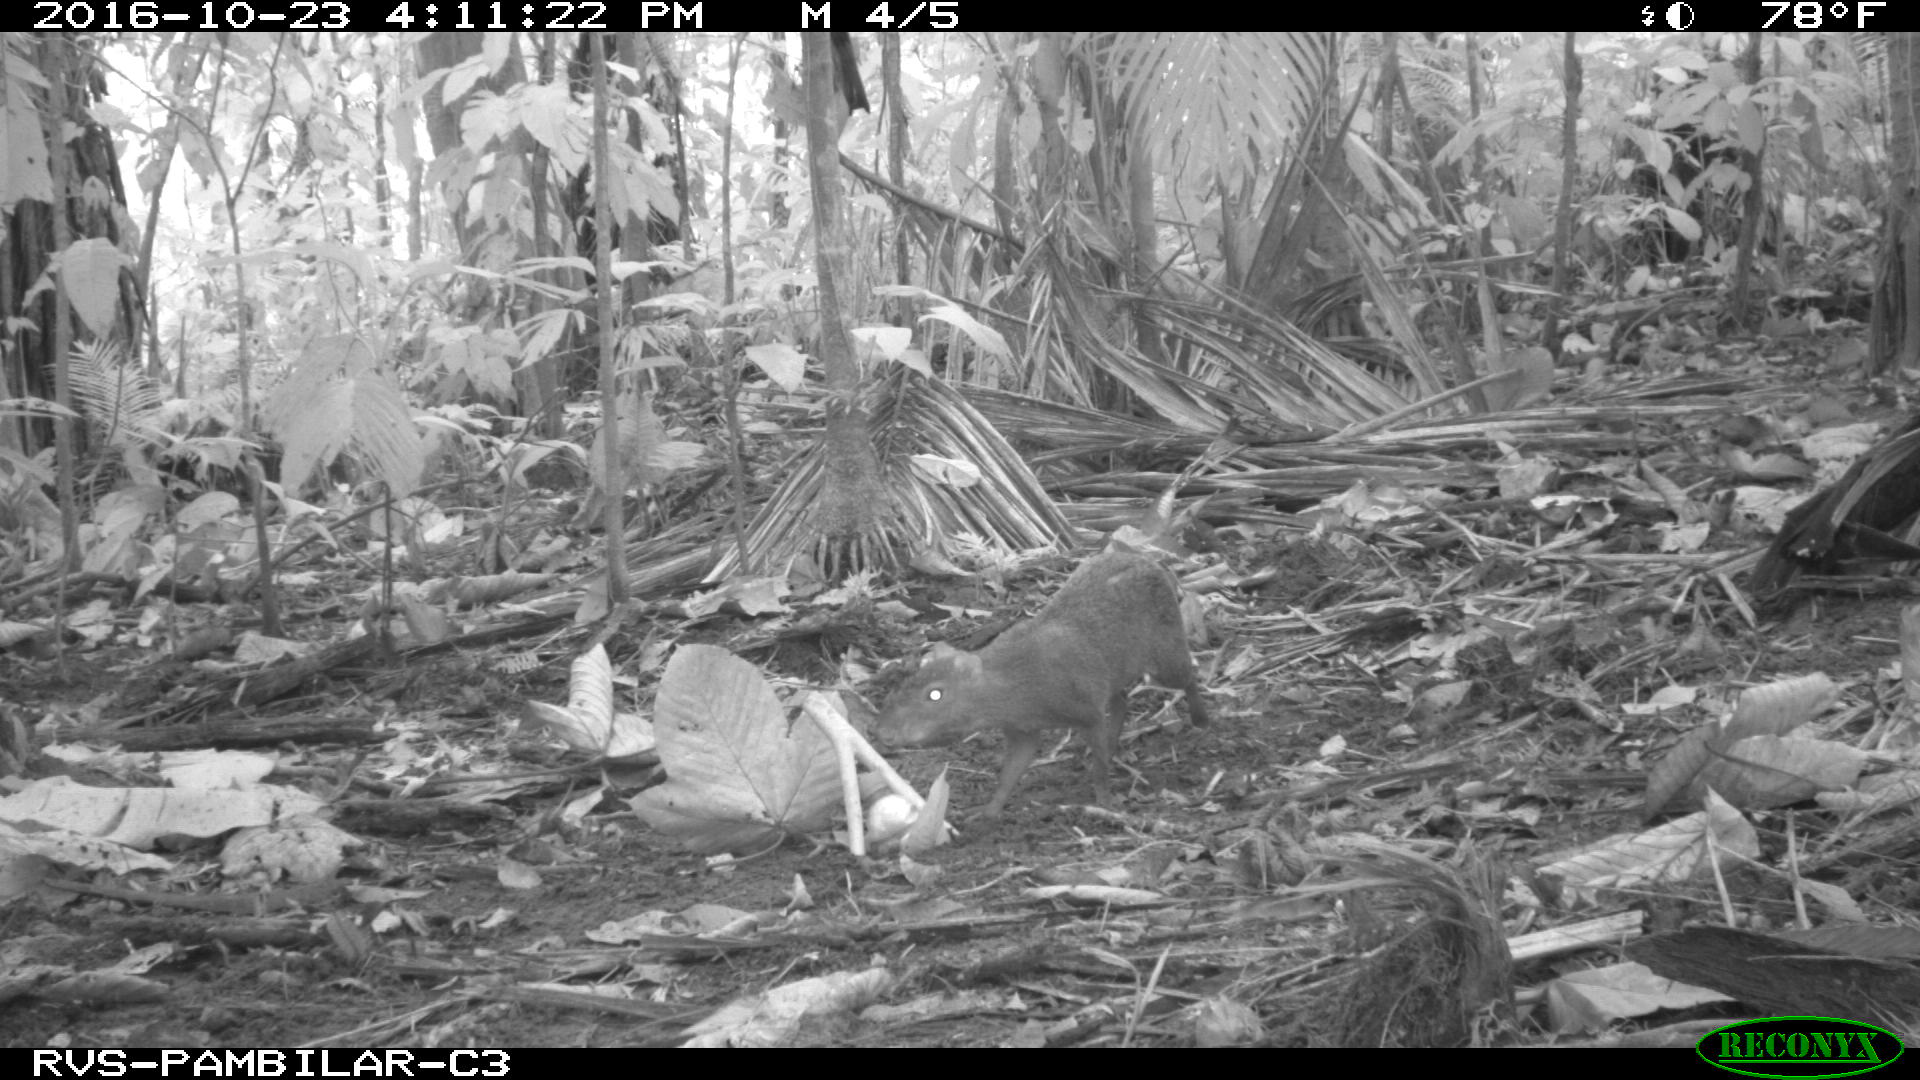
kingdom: Animalia
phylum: Chordata
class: Mammalia
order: Rodentia
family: Dasyproctidae
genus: Dasyprocta
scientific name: Dasyprocta punctata
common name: Central american agouti
